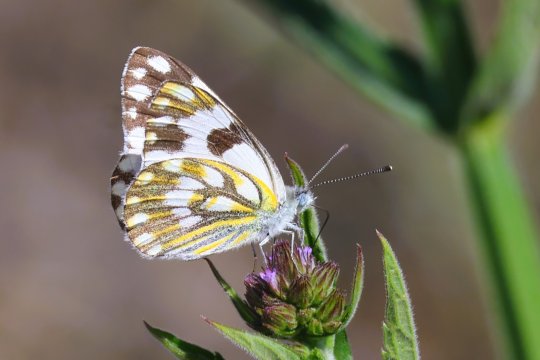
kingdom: Animalia
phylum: Arthropoda
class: Insecta
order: Lepidoptera
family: Pieridae
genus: Pontia
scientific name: Pontia helice
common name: Meadow White
